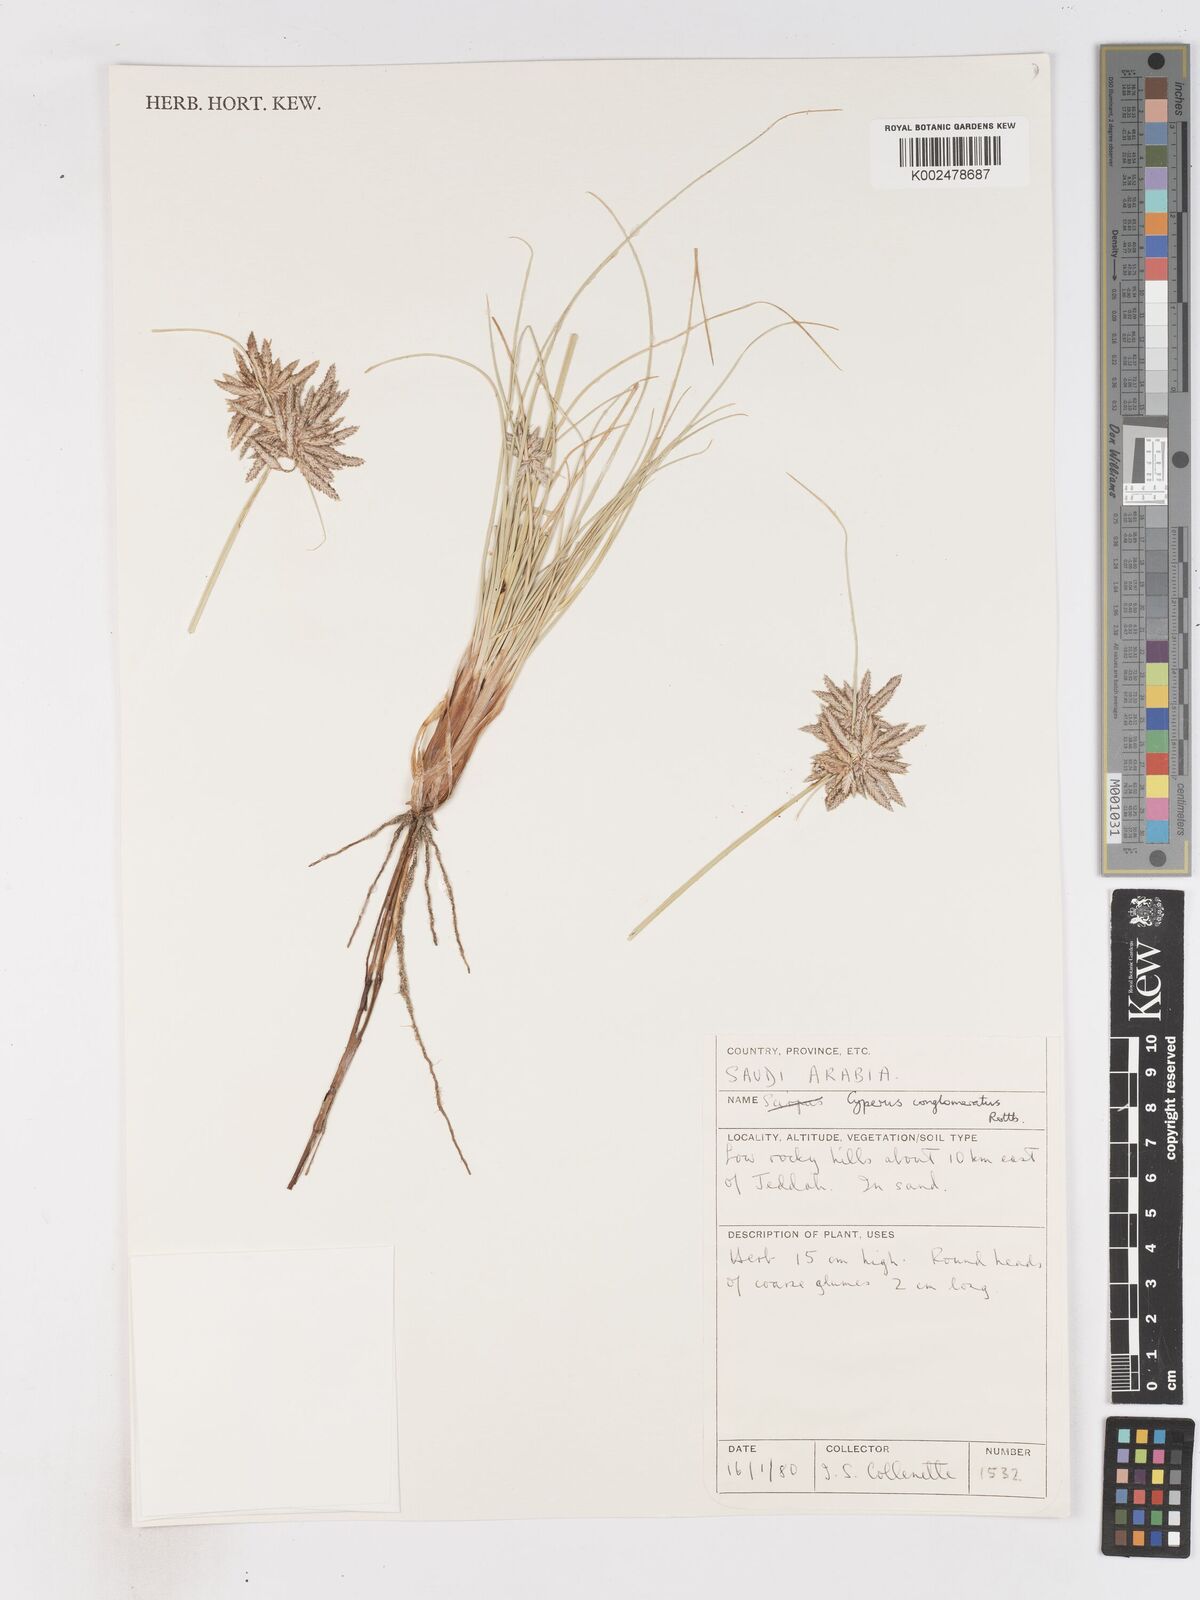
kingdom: Plantae
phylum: Tracheophyta
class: Liliopsida
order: Poales
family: Cyperaceae
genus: Cyperus
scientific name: Cyperus conglomeratus
